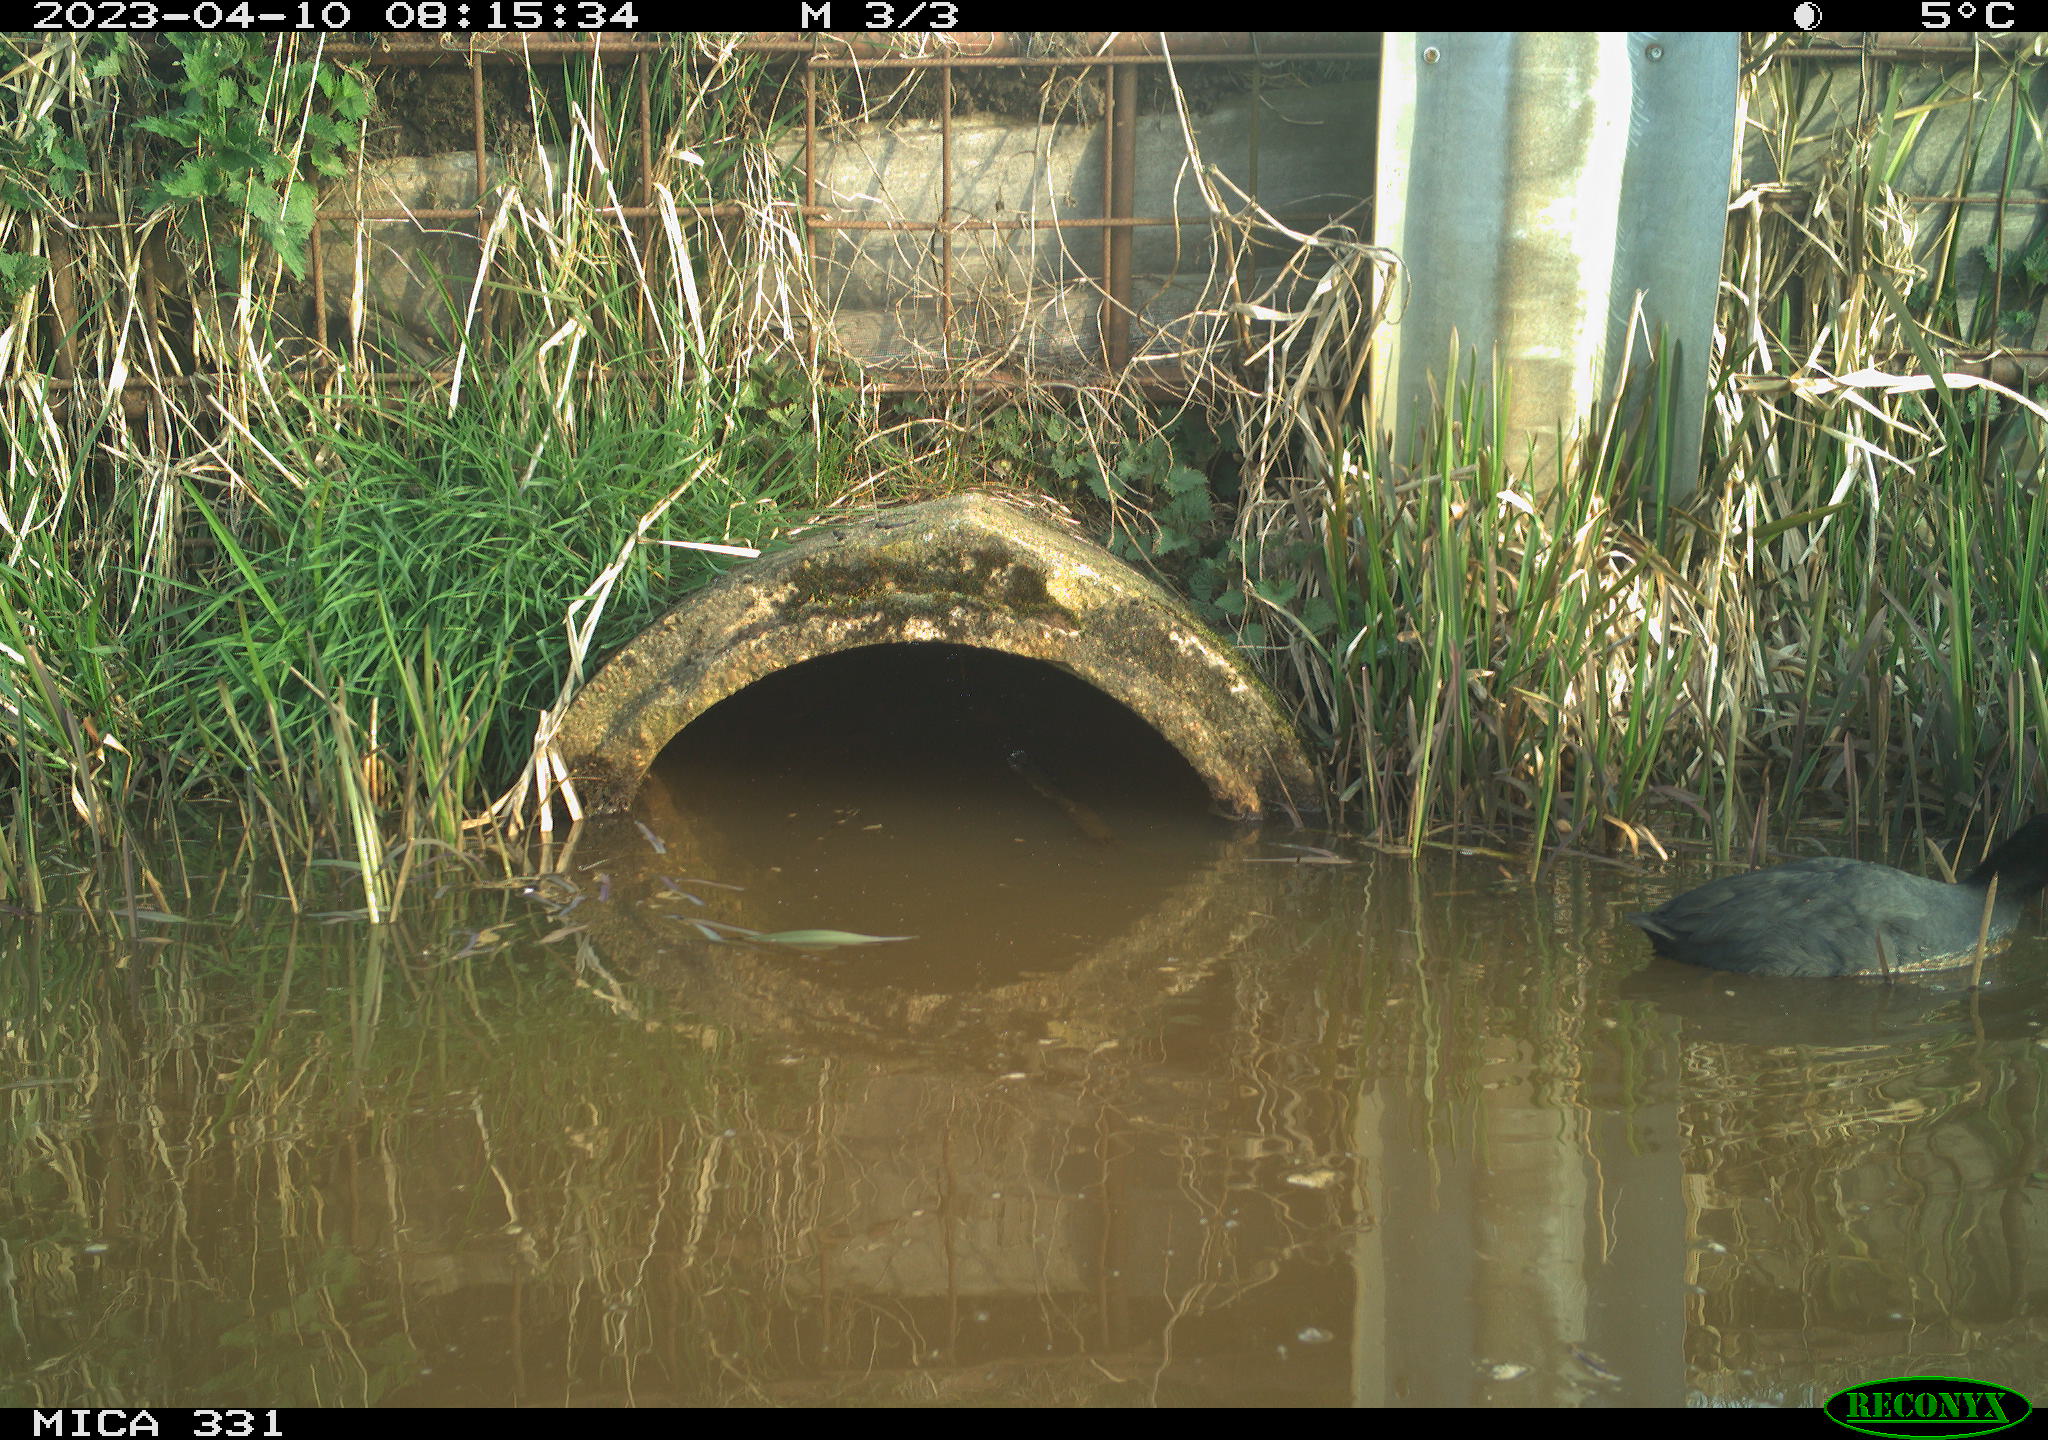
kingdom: Animalia
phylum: Chordata
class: Aves
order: Gruiformes
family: Rallidae
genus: Fulica
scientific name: Fulica atra
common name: Eurasian coot
